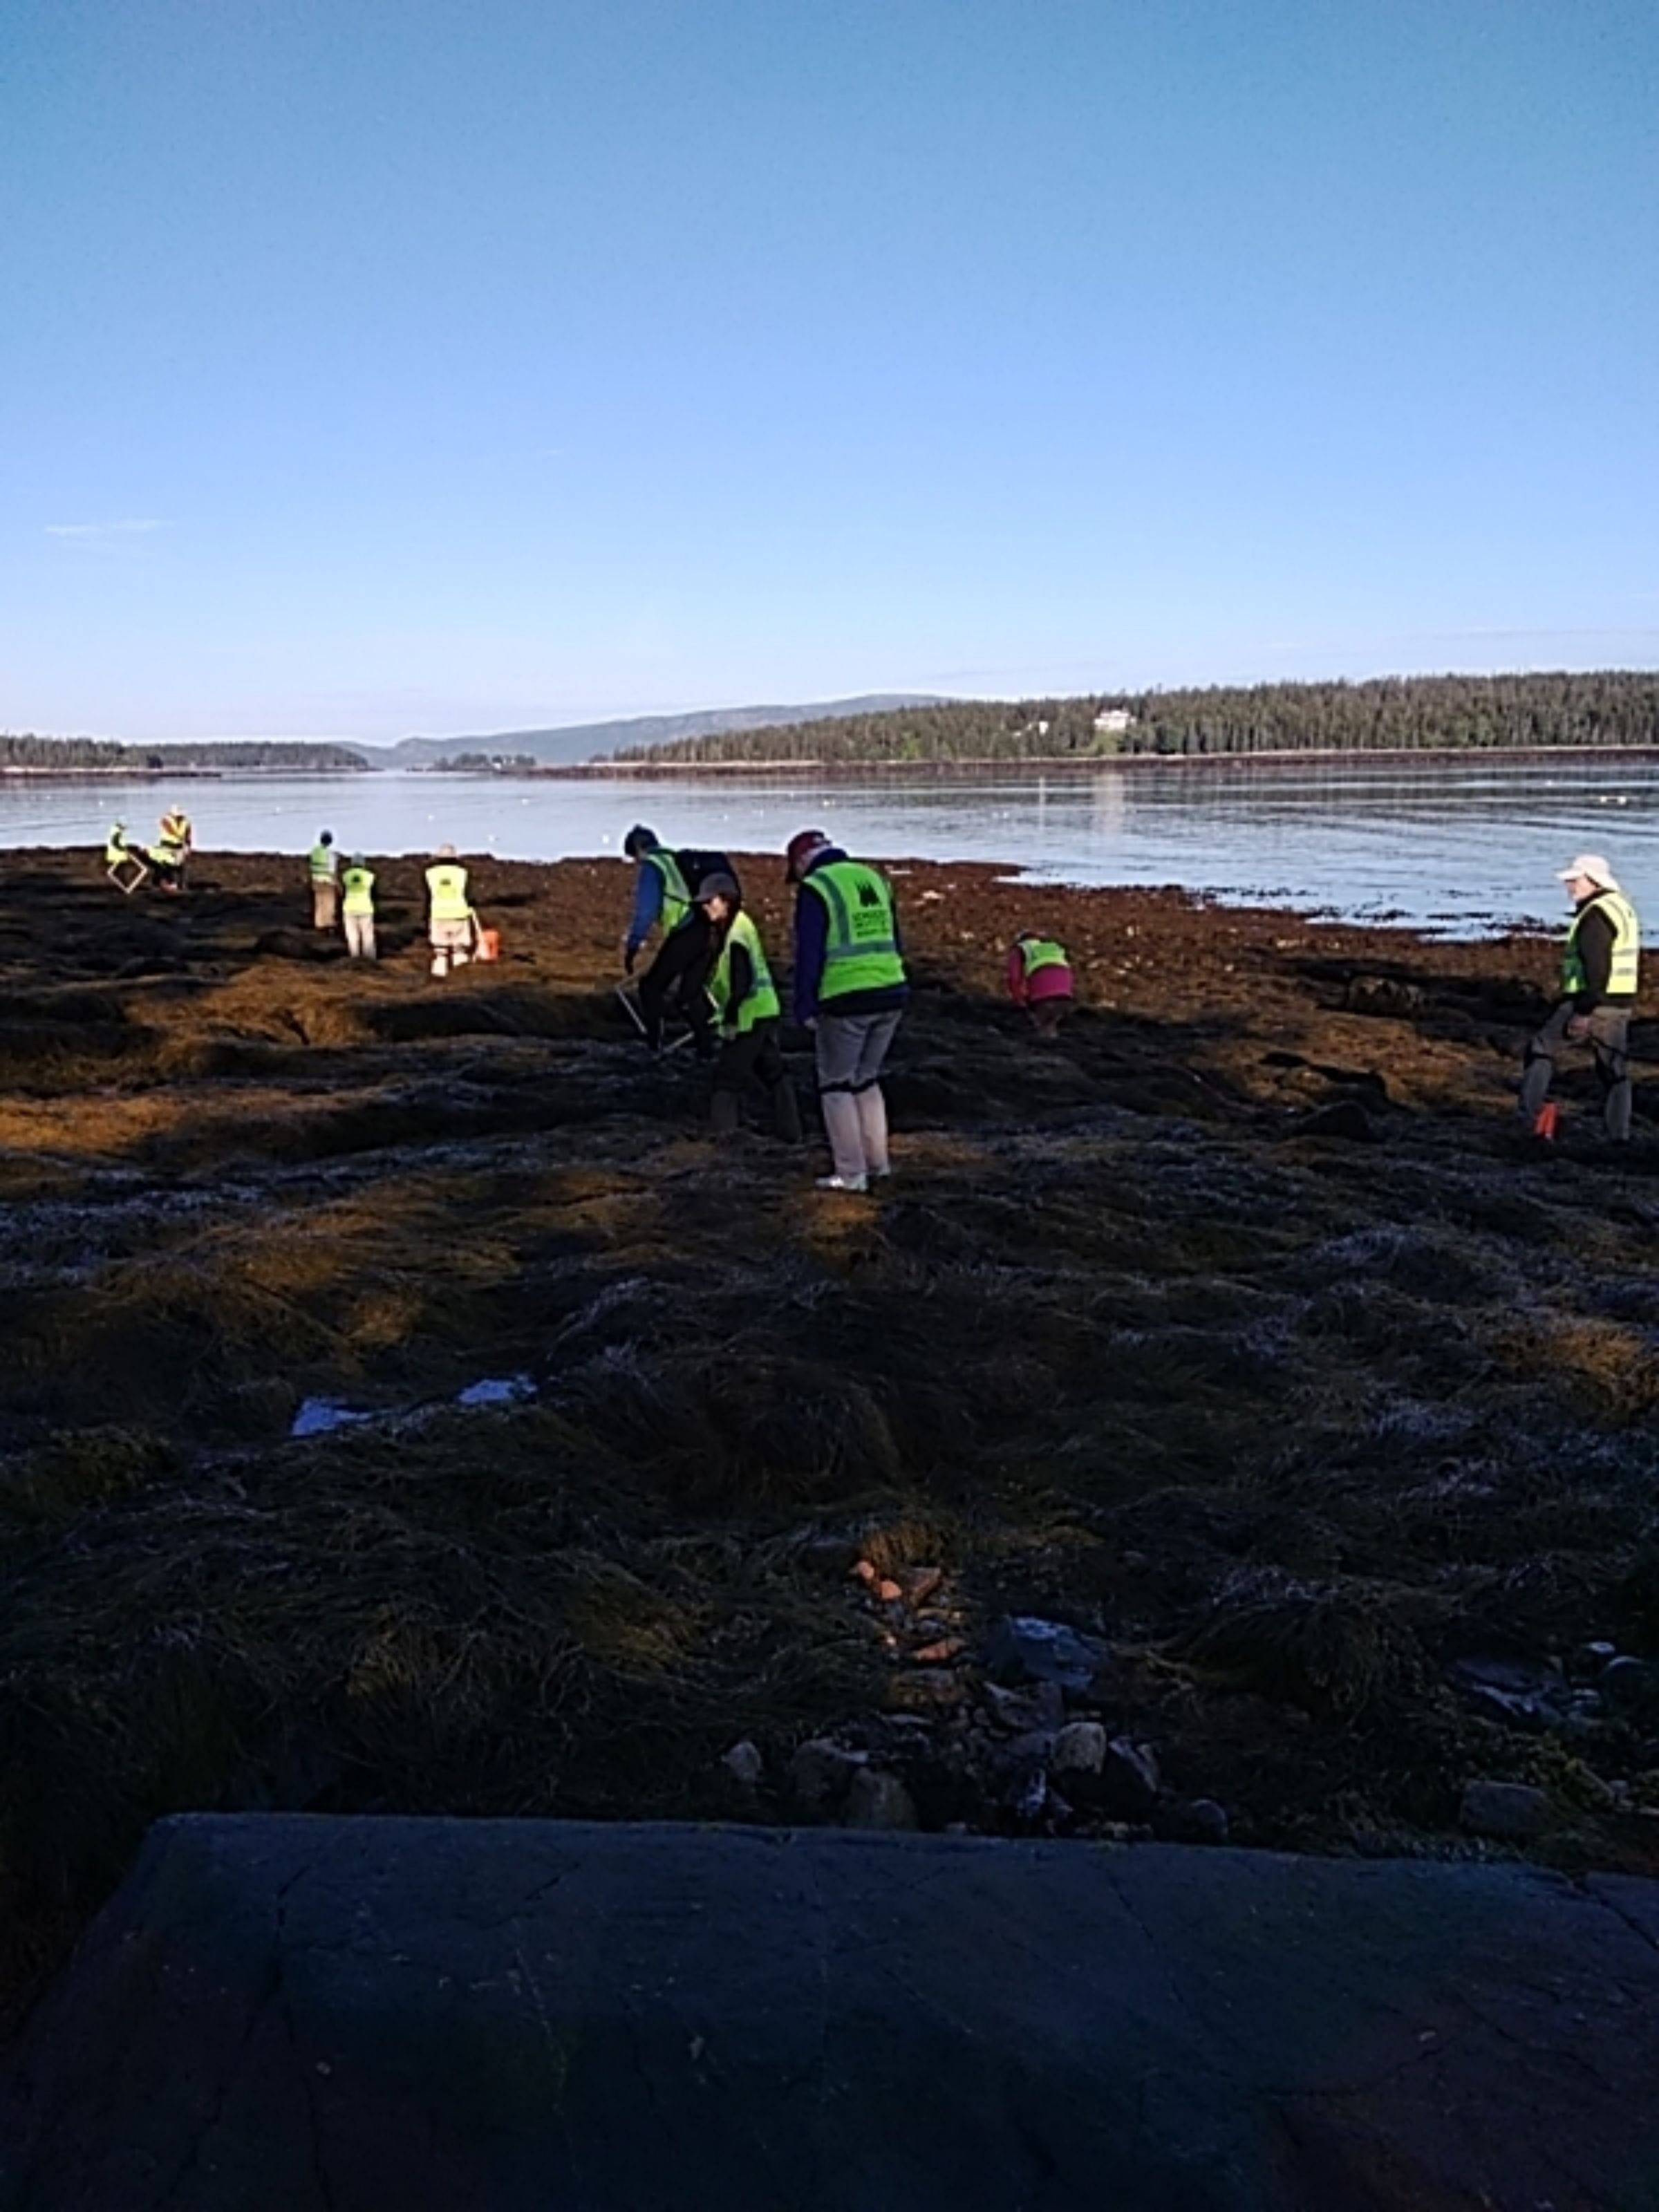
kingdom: Chromista
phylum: Ochrophyta
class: Phaeophyceae
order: Fucales
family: Fucaceae
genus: Ascophyllum
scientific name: Ascophyllum nodosum
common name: Rockweed
